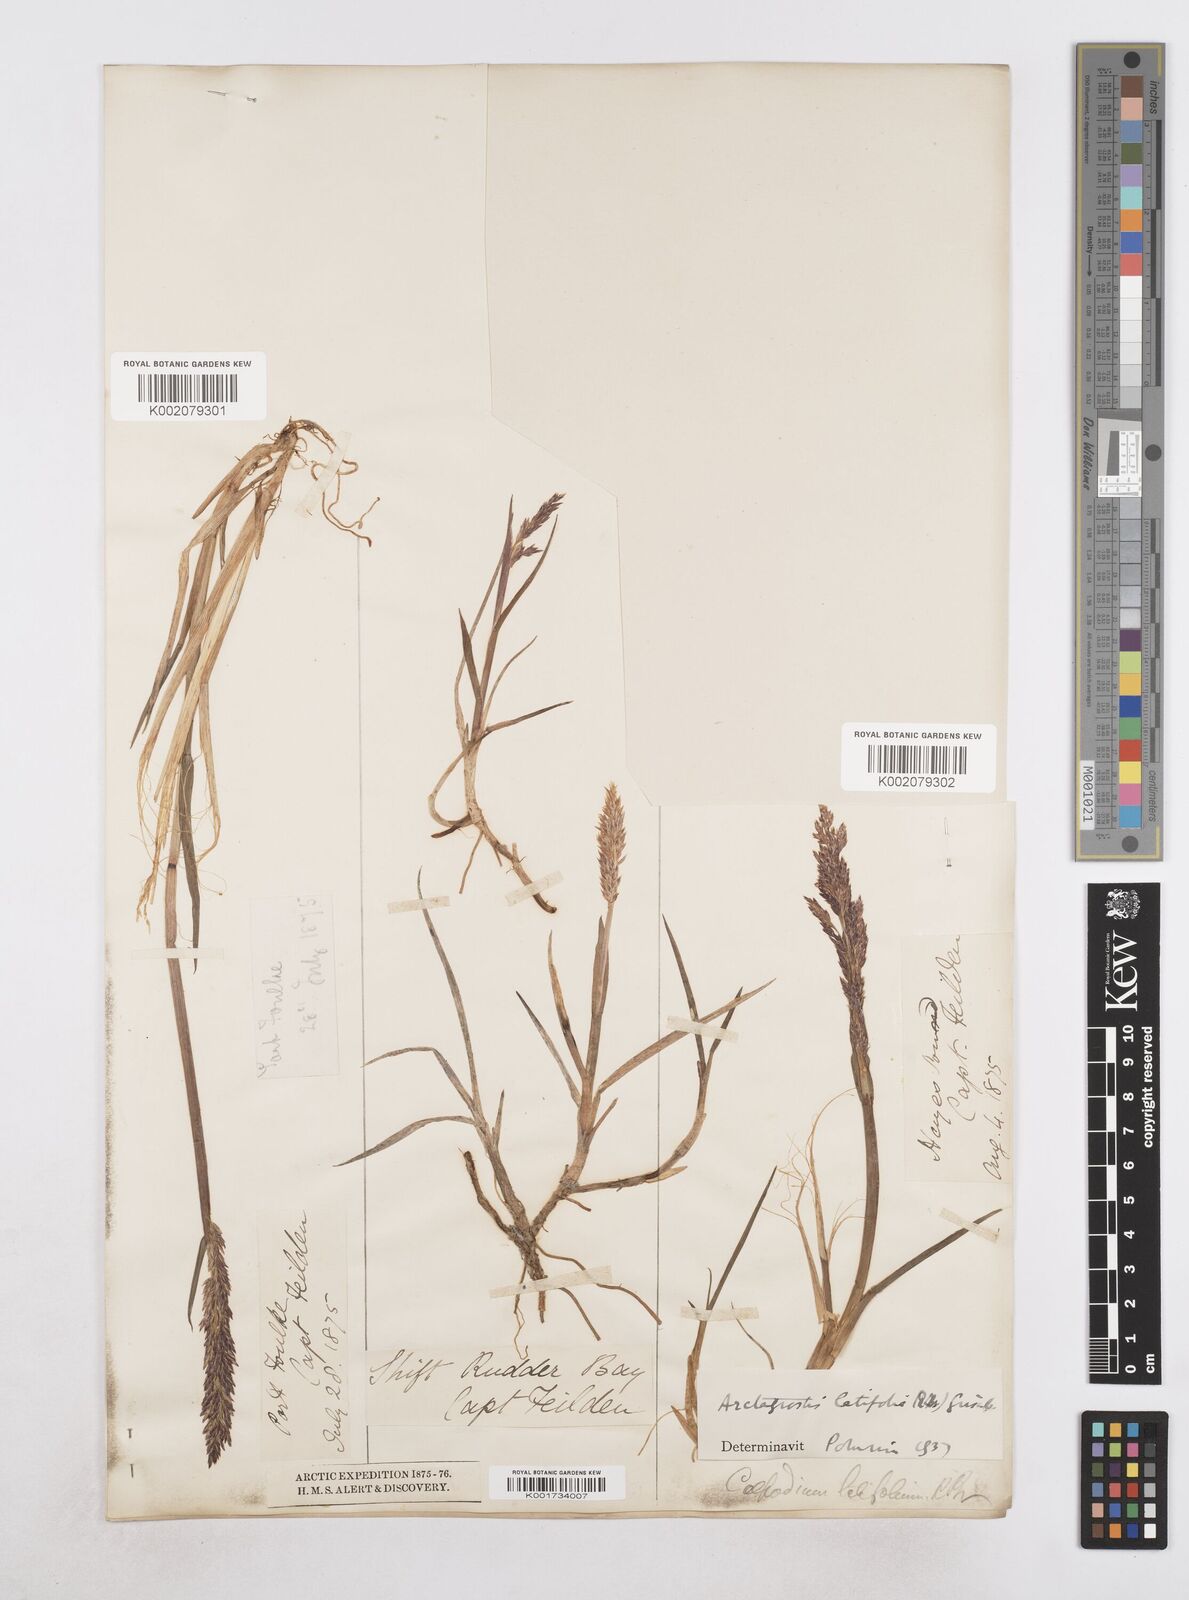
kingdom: Plantae
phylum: Tracheophyta
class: Liliopsida
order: Poales
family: Poaceae
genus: Arctagrostis
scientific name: Arctagrostis latifolia
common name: Arctic grass
